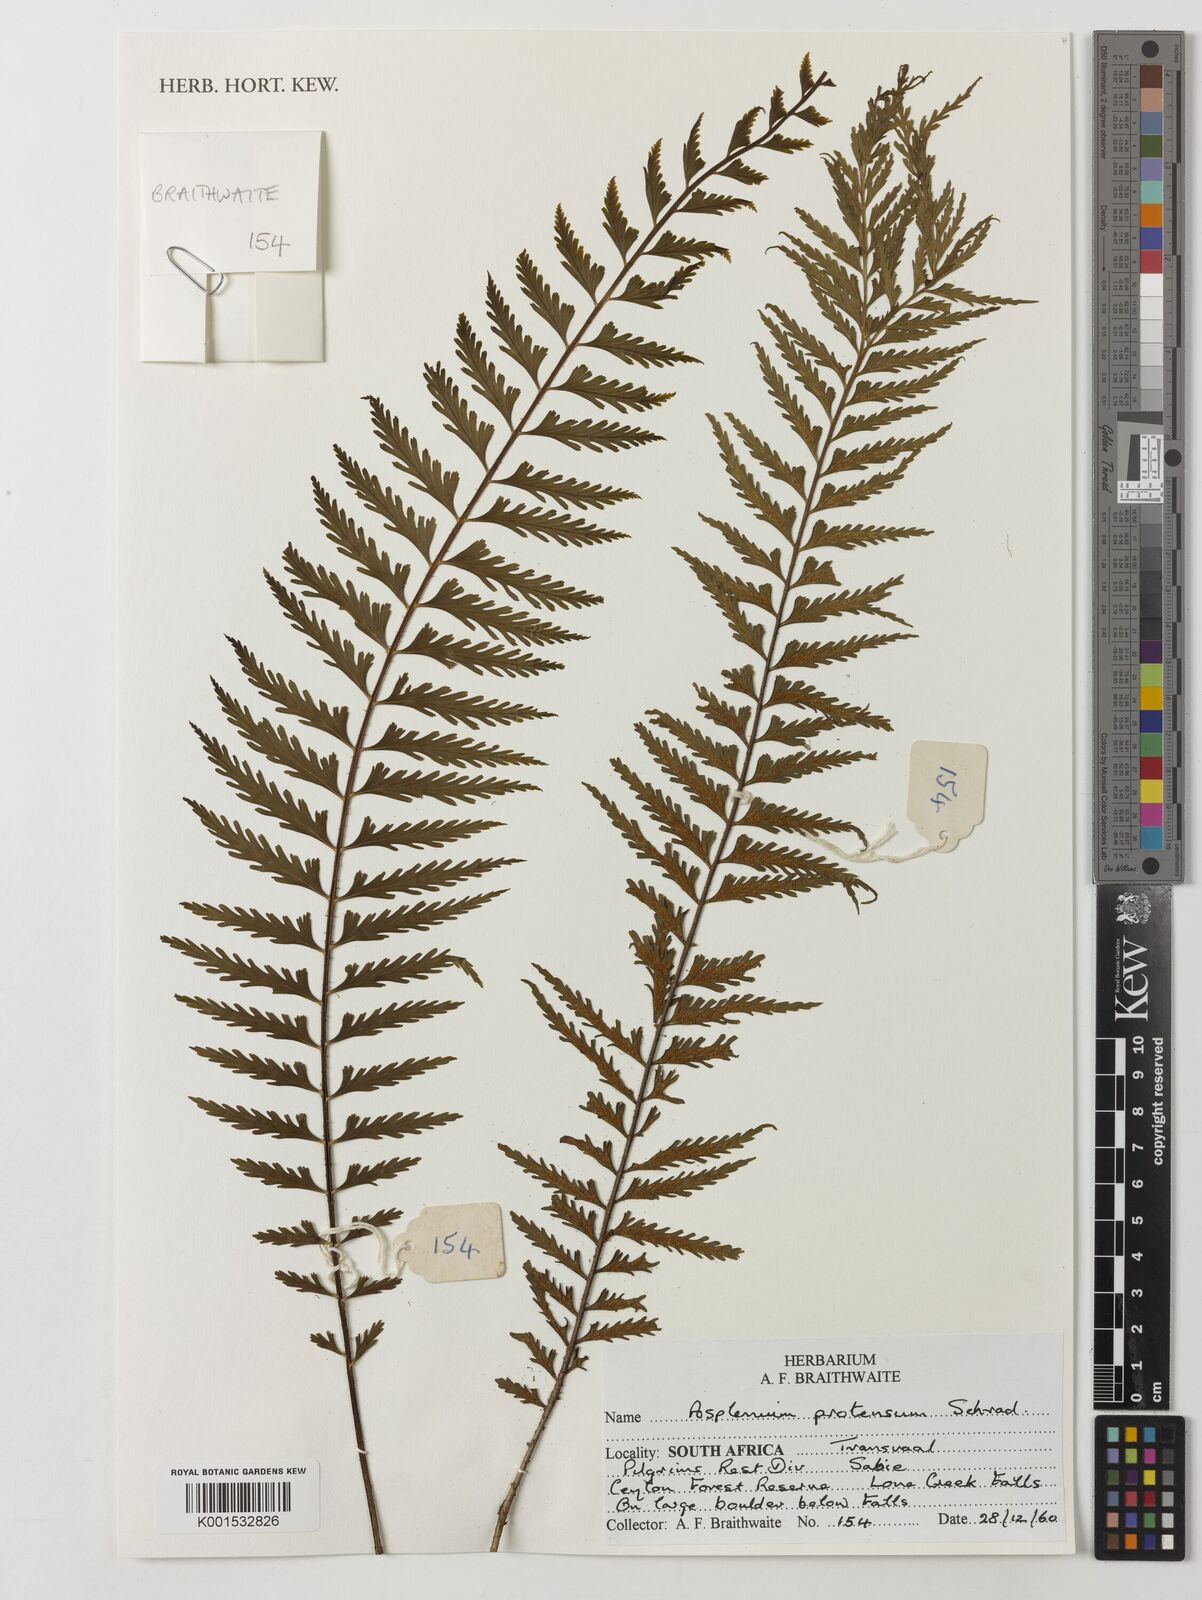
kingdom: Plantae
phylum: Tracheophyta
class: Polypodiopsida
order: Polypodiales
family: Aspleniaceae
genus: Asplenium
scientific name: Asplenium protensum
